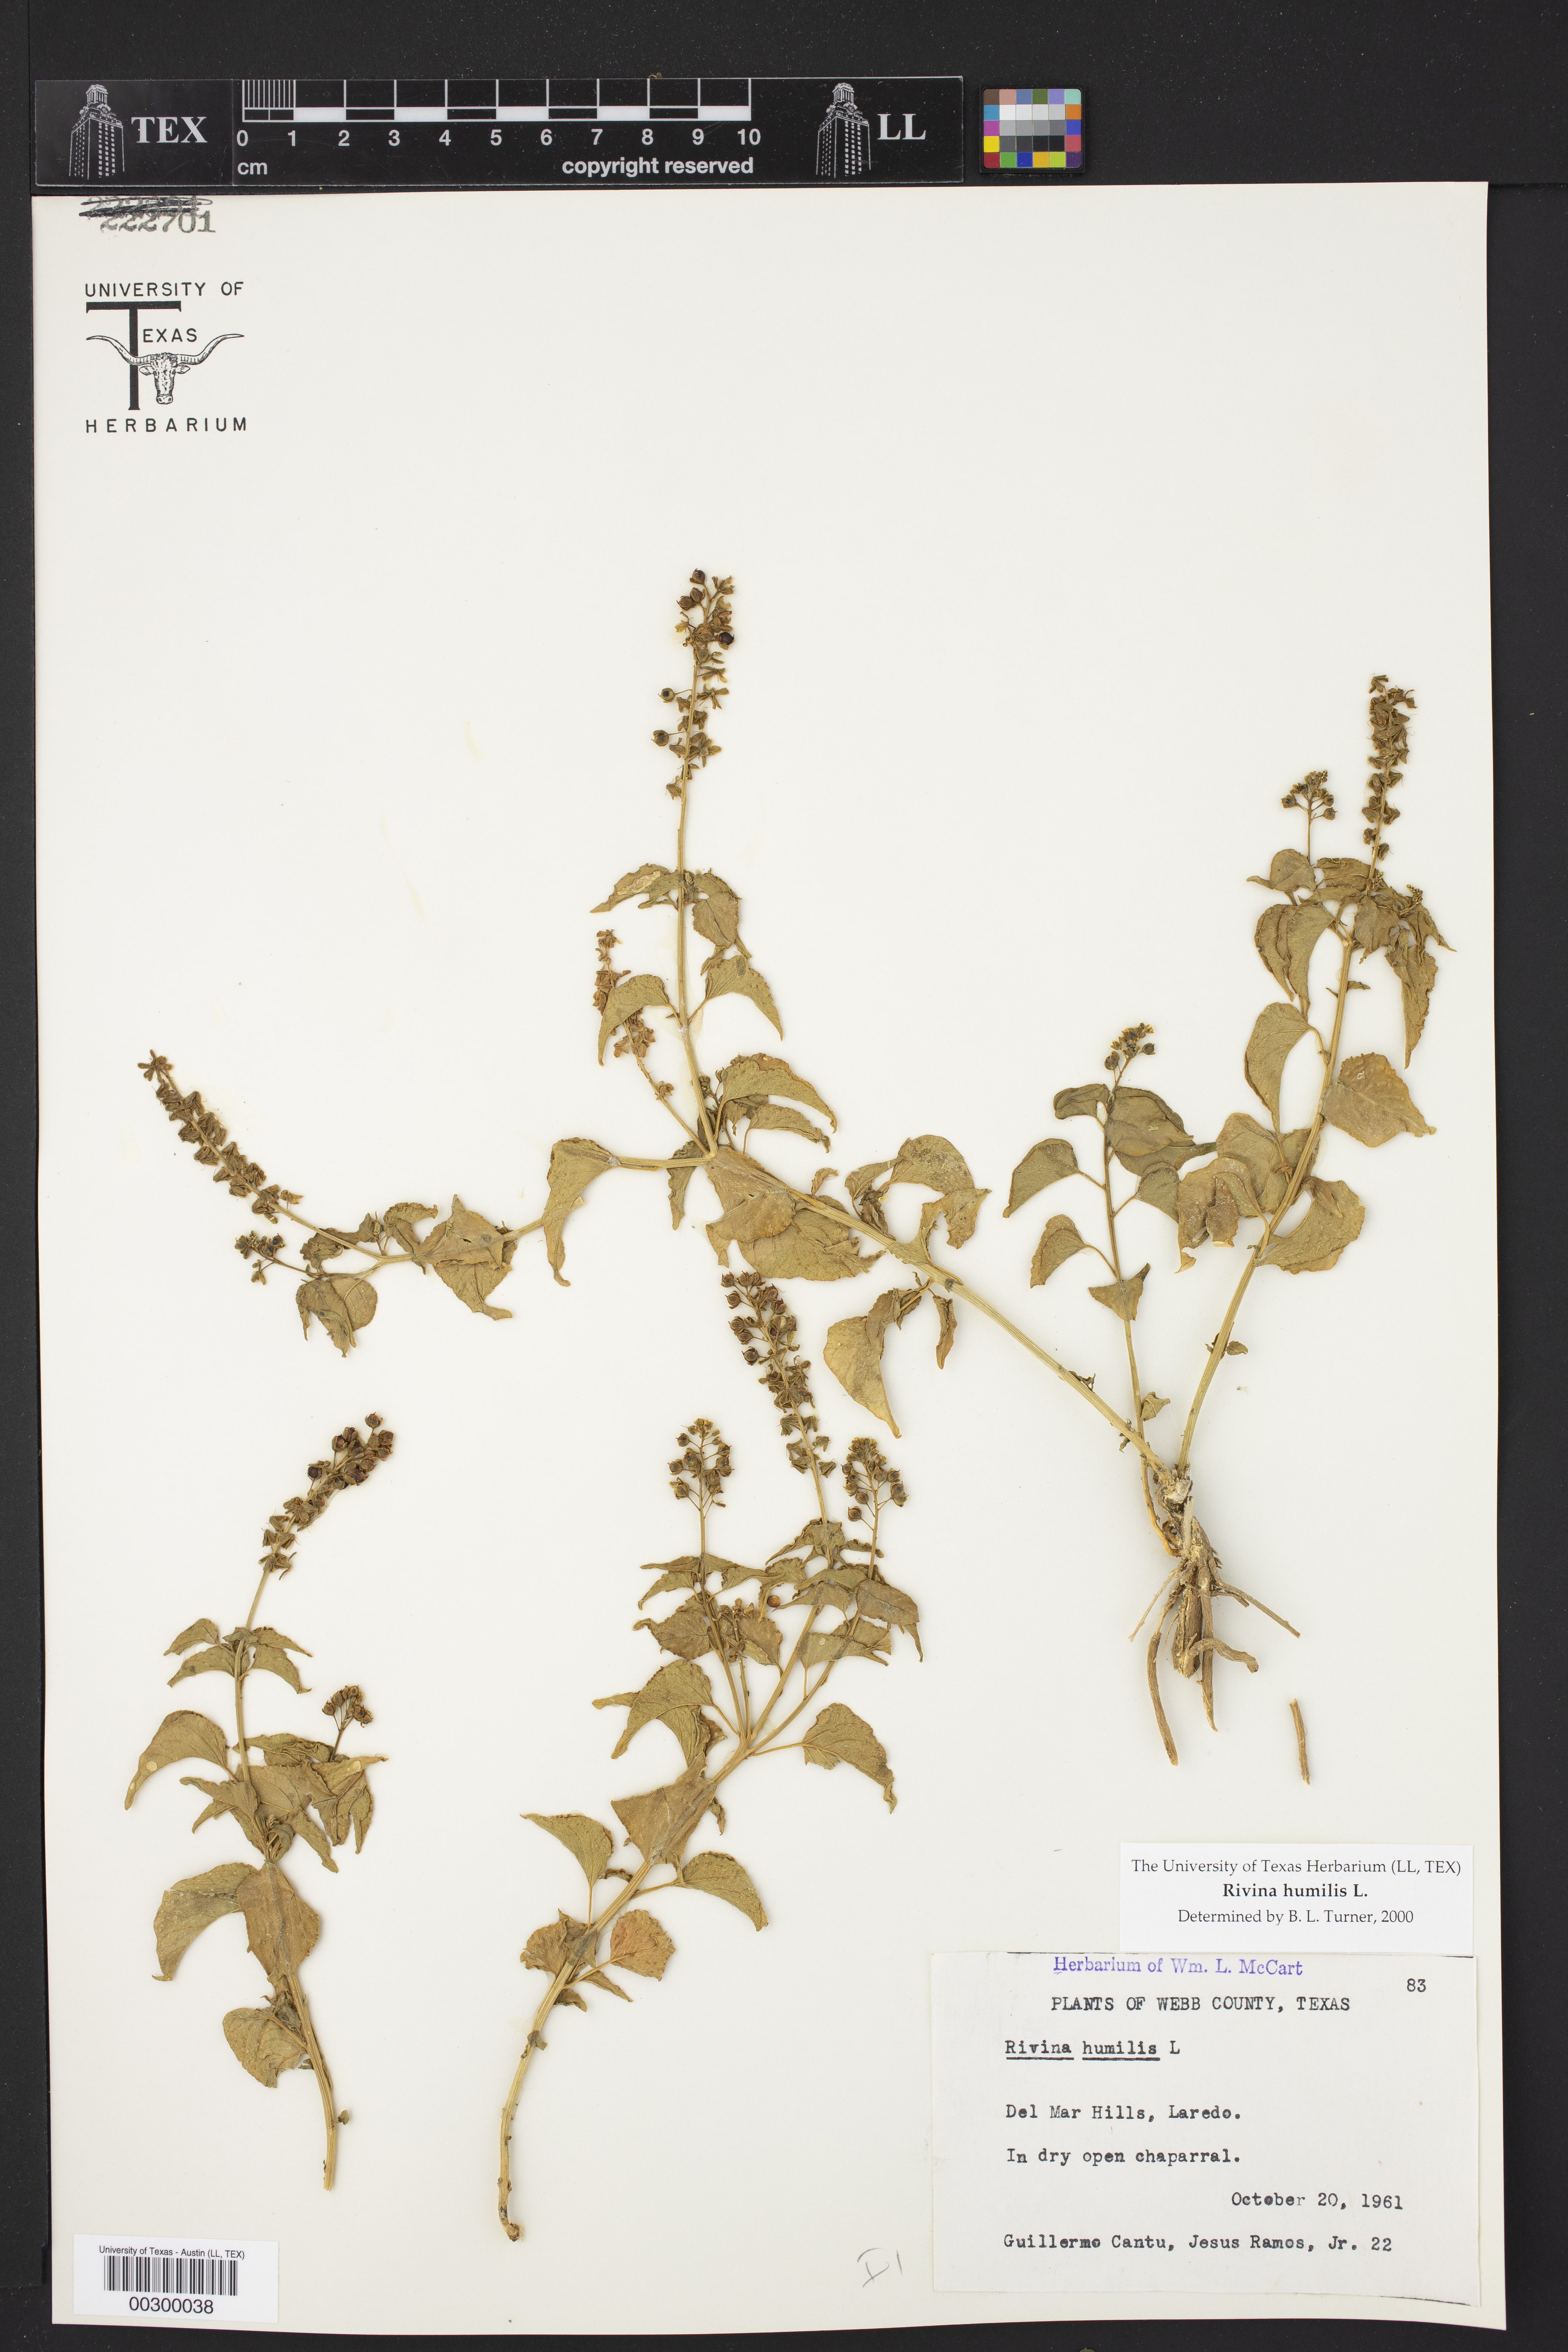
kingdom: Plantae
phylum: Tracheophyta
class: Magnoliopsida
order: Caryophyllales
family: Phytolaccaceae
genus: Rivina
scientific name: Rivina humilis
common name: Rougeplant
